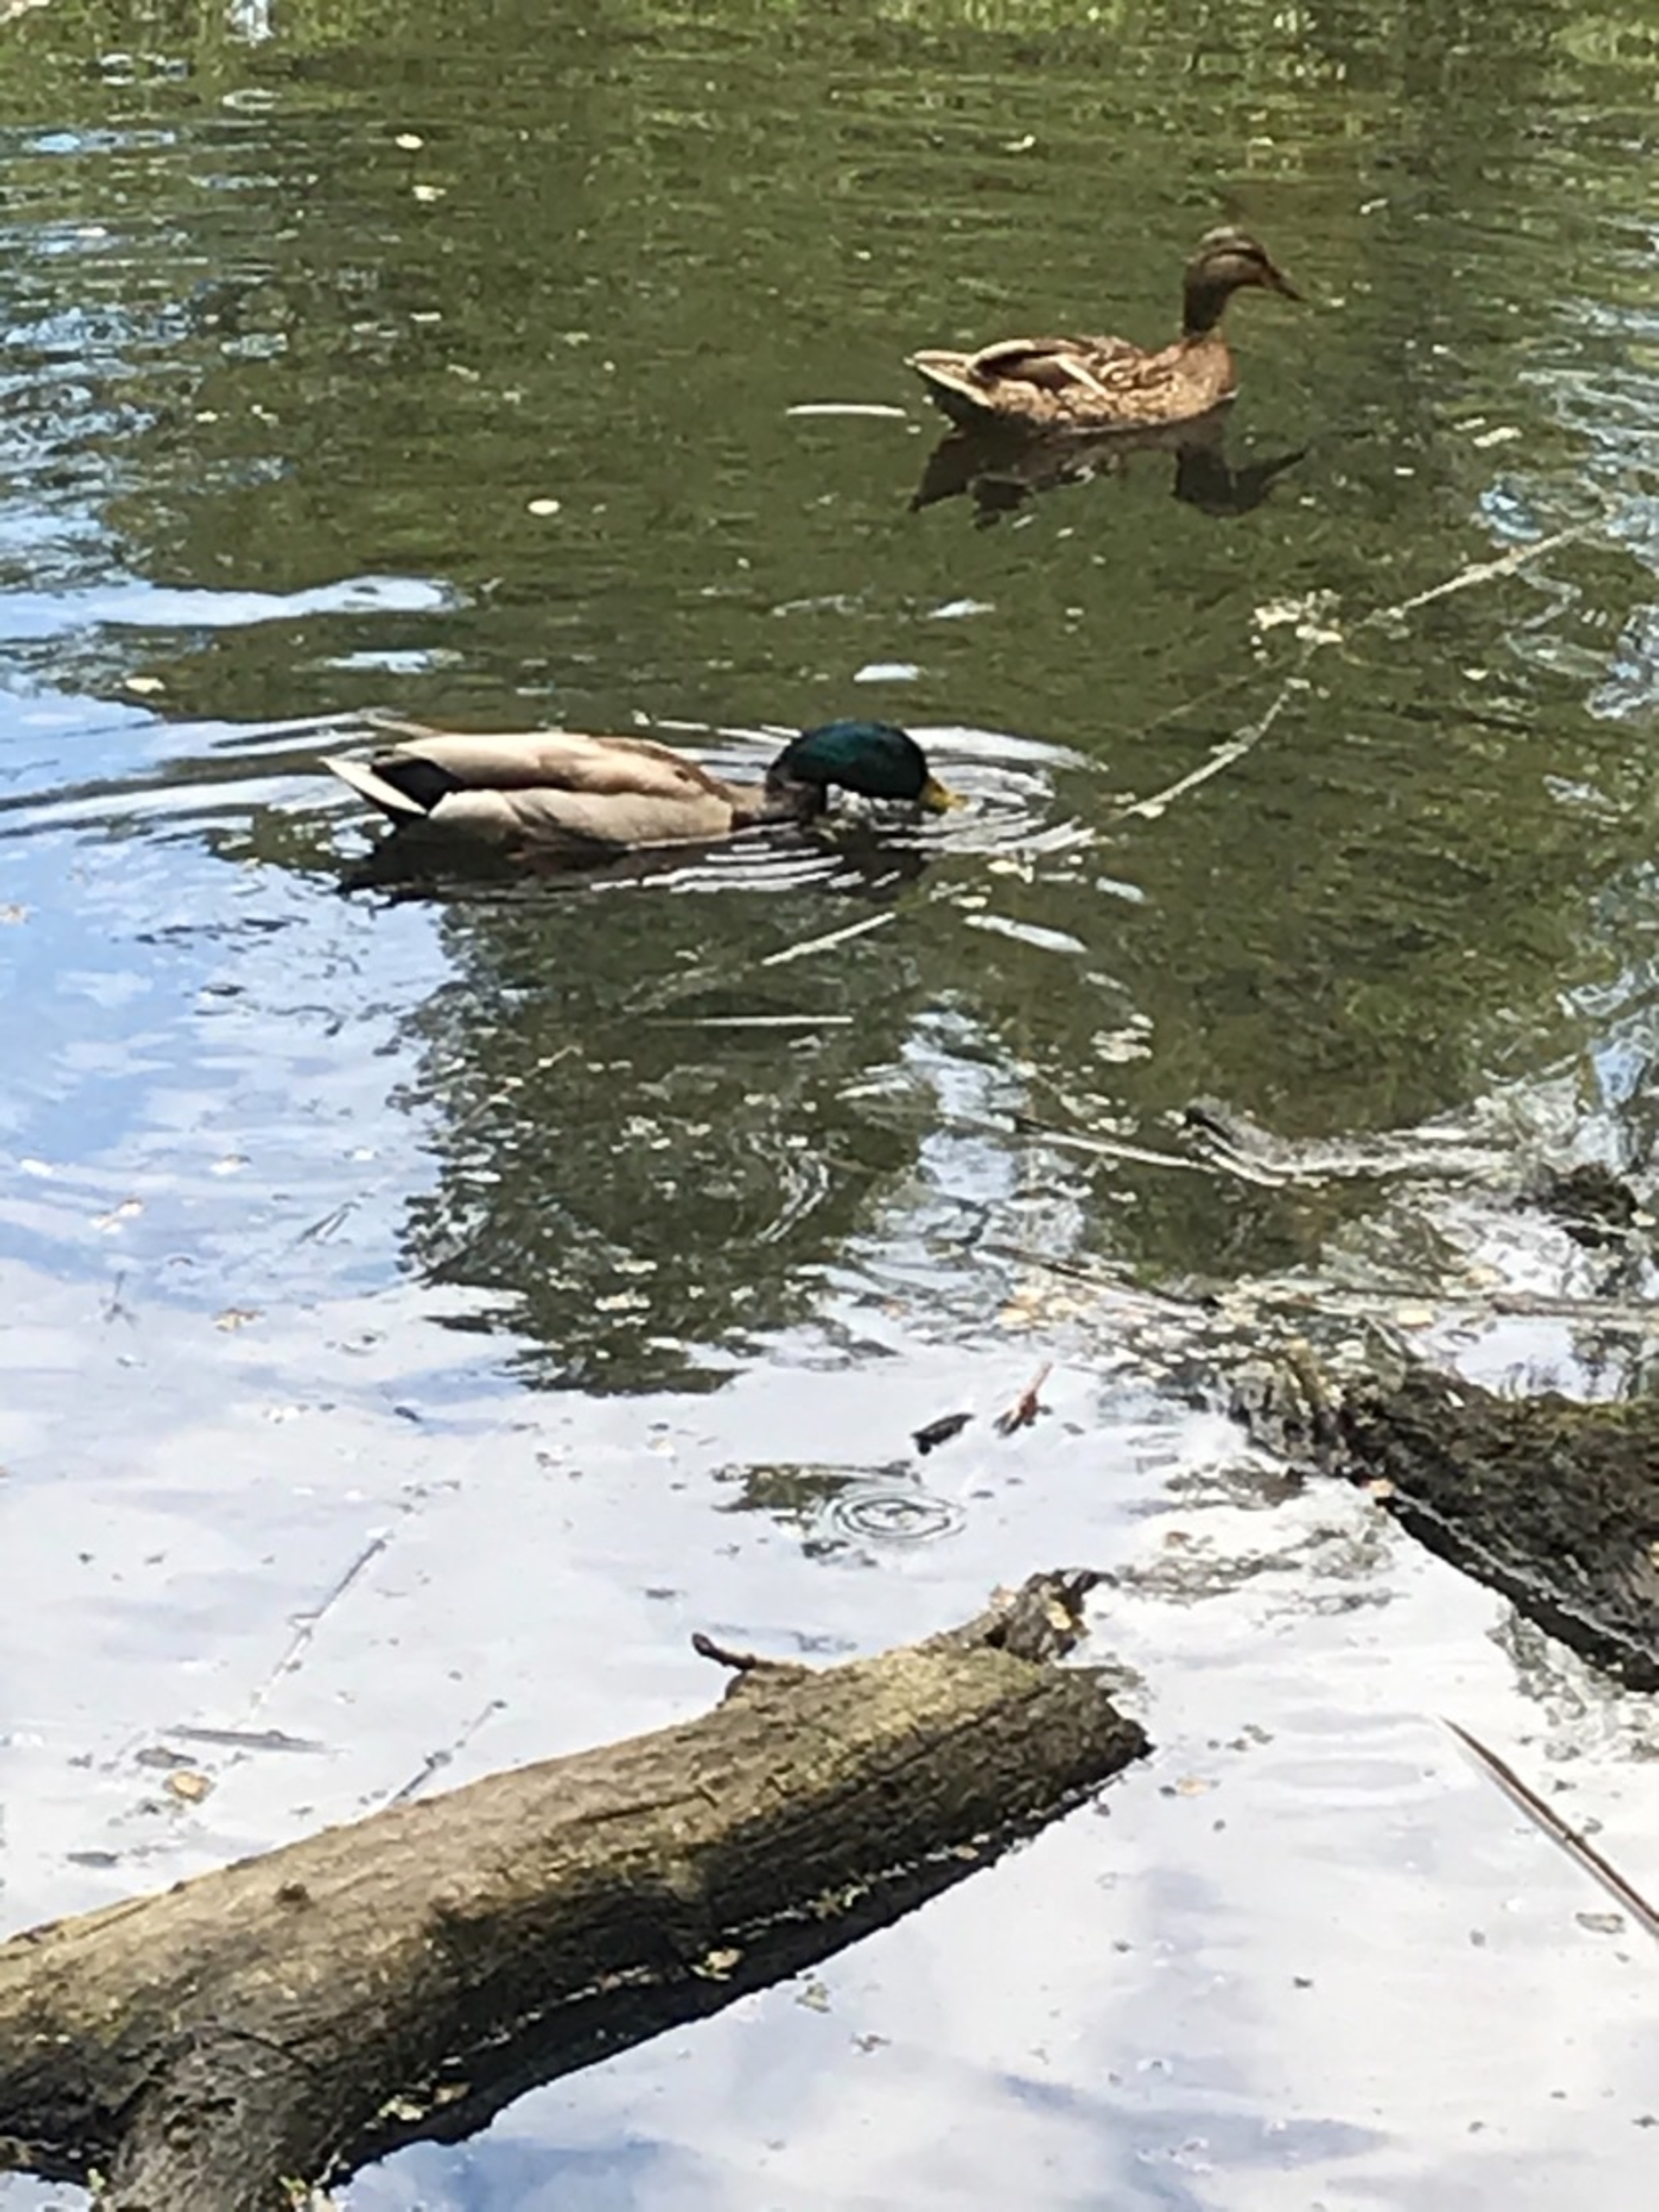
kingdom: Animalia
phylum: Chordata
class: Aves
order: Anseriformes
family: Anatidae
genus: Anas
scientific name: Anas platyrhynchos
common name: Gråand
